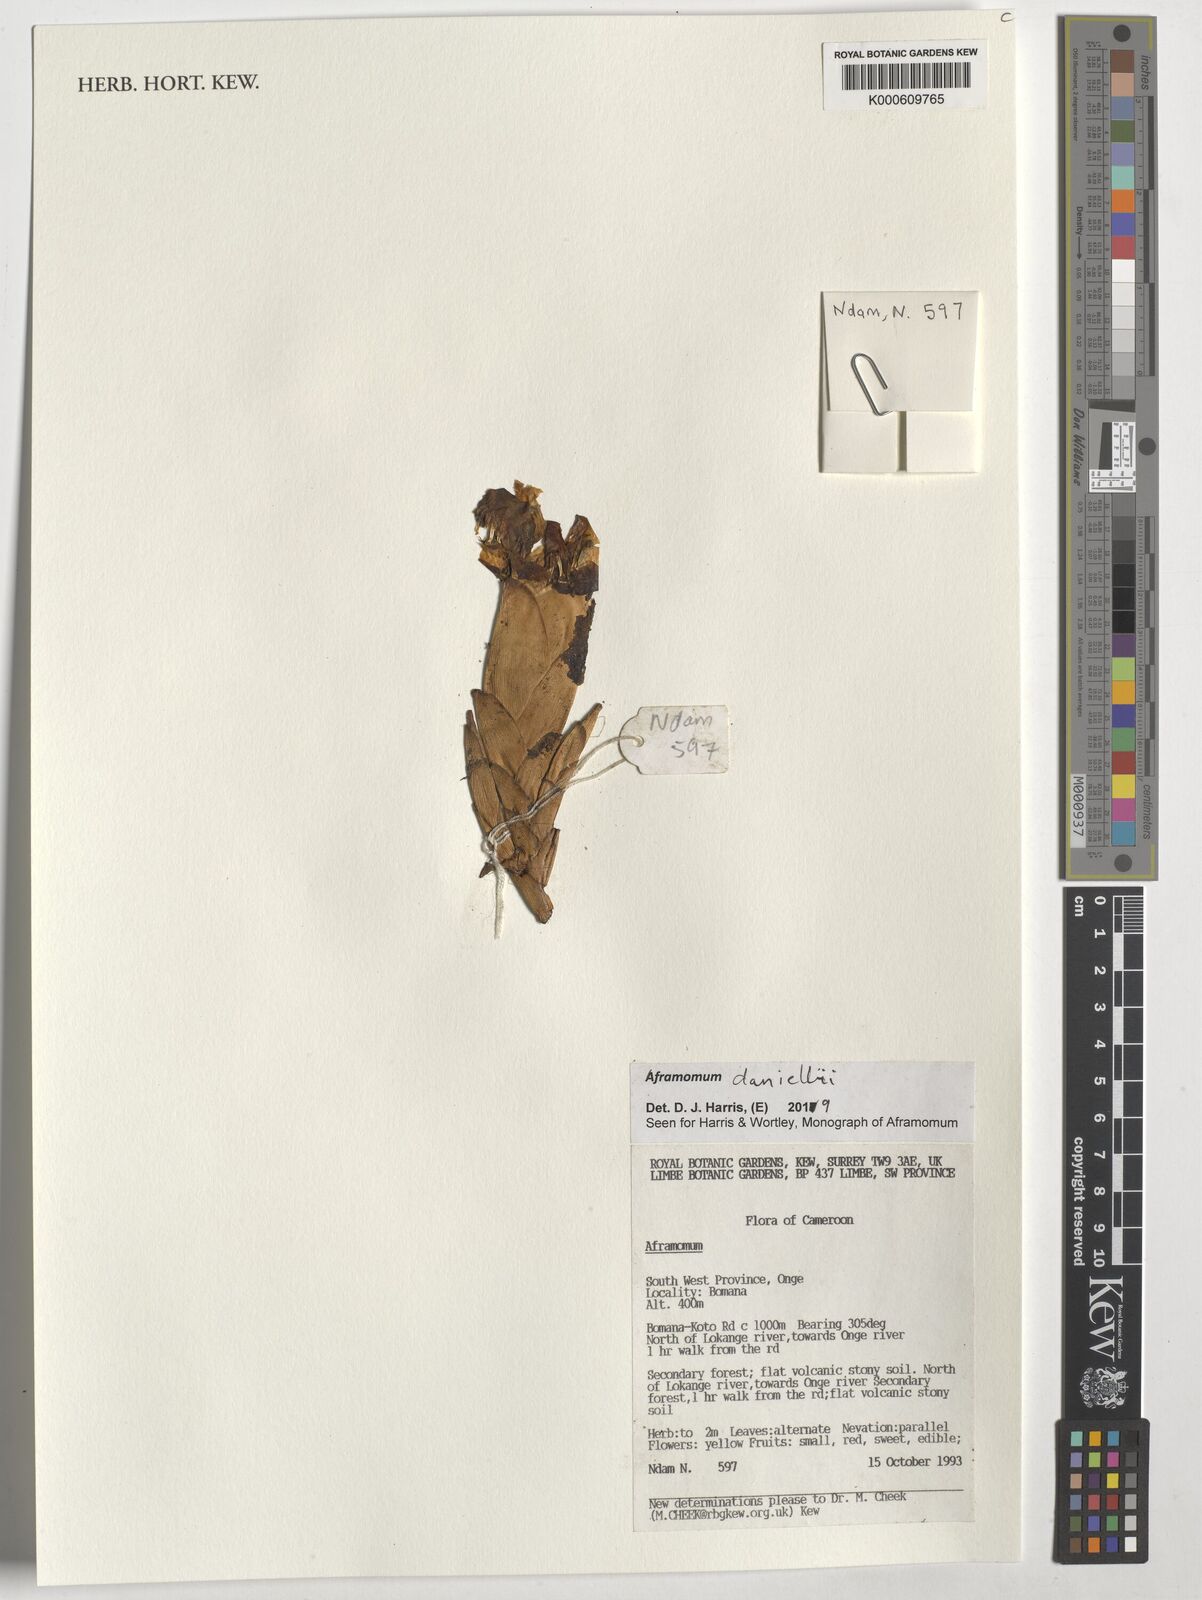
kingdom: Plantae
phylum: Tracheophyta
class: Liliopsida
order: Zingiberales
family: Zingiberaceae
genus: Aframomum
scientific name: Aframomum daniellii
